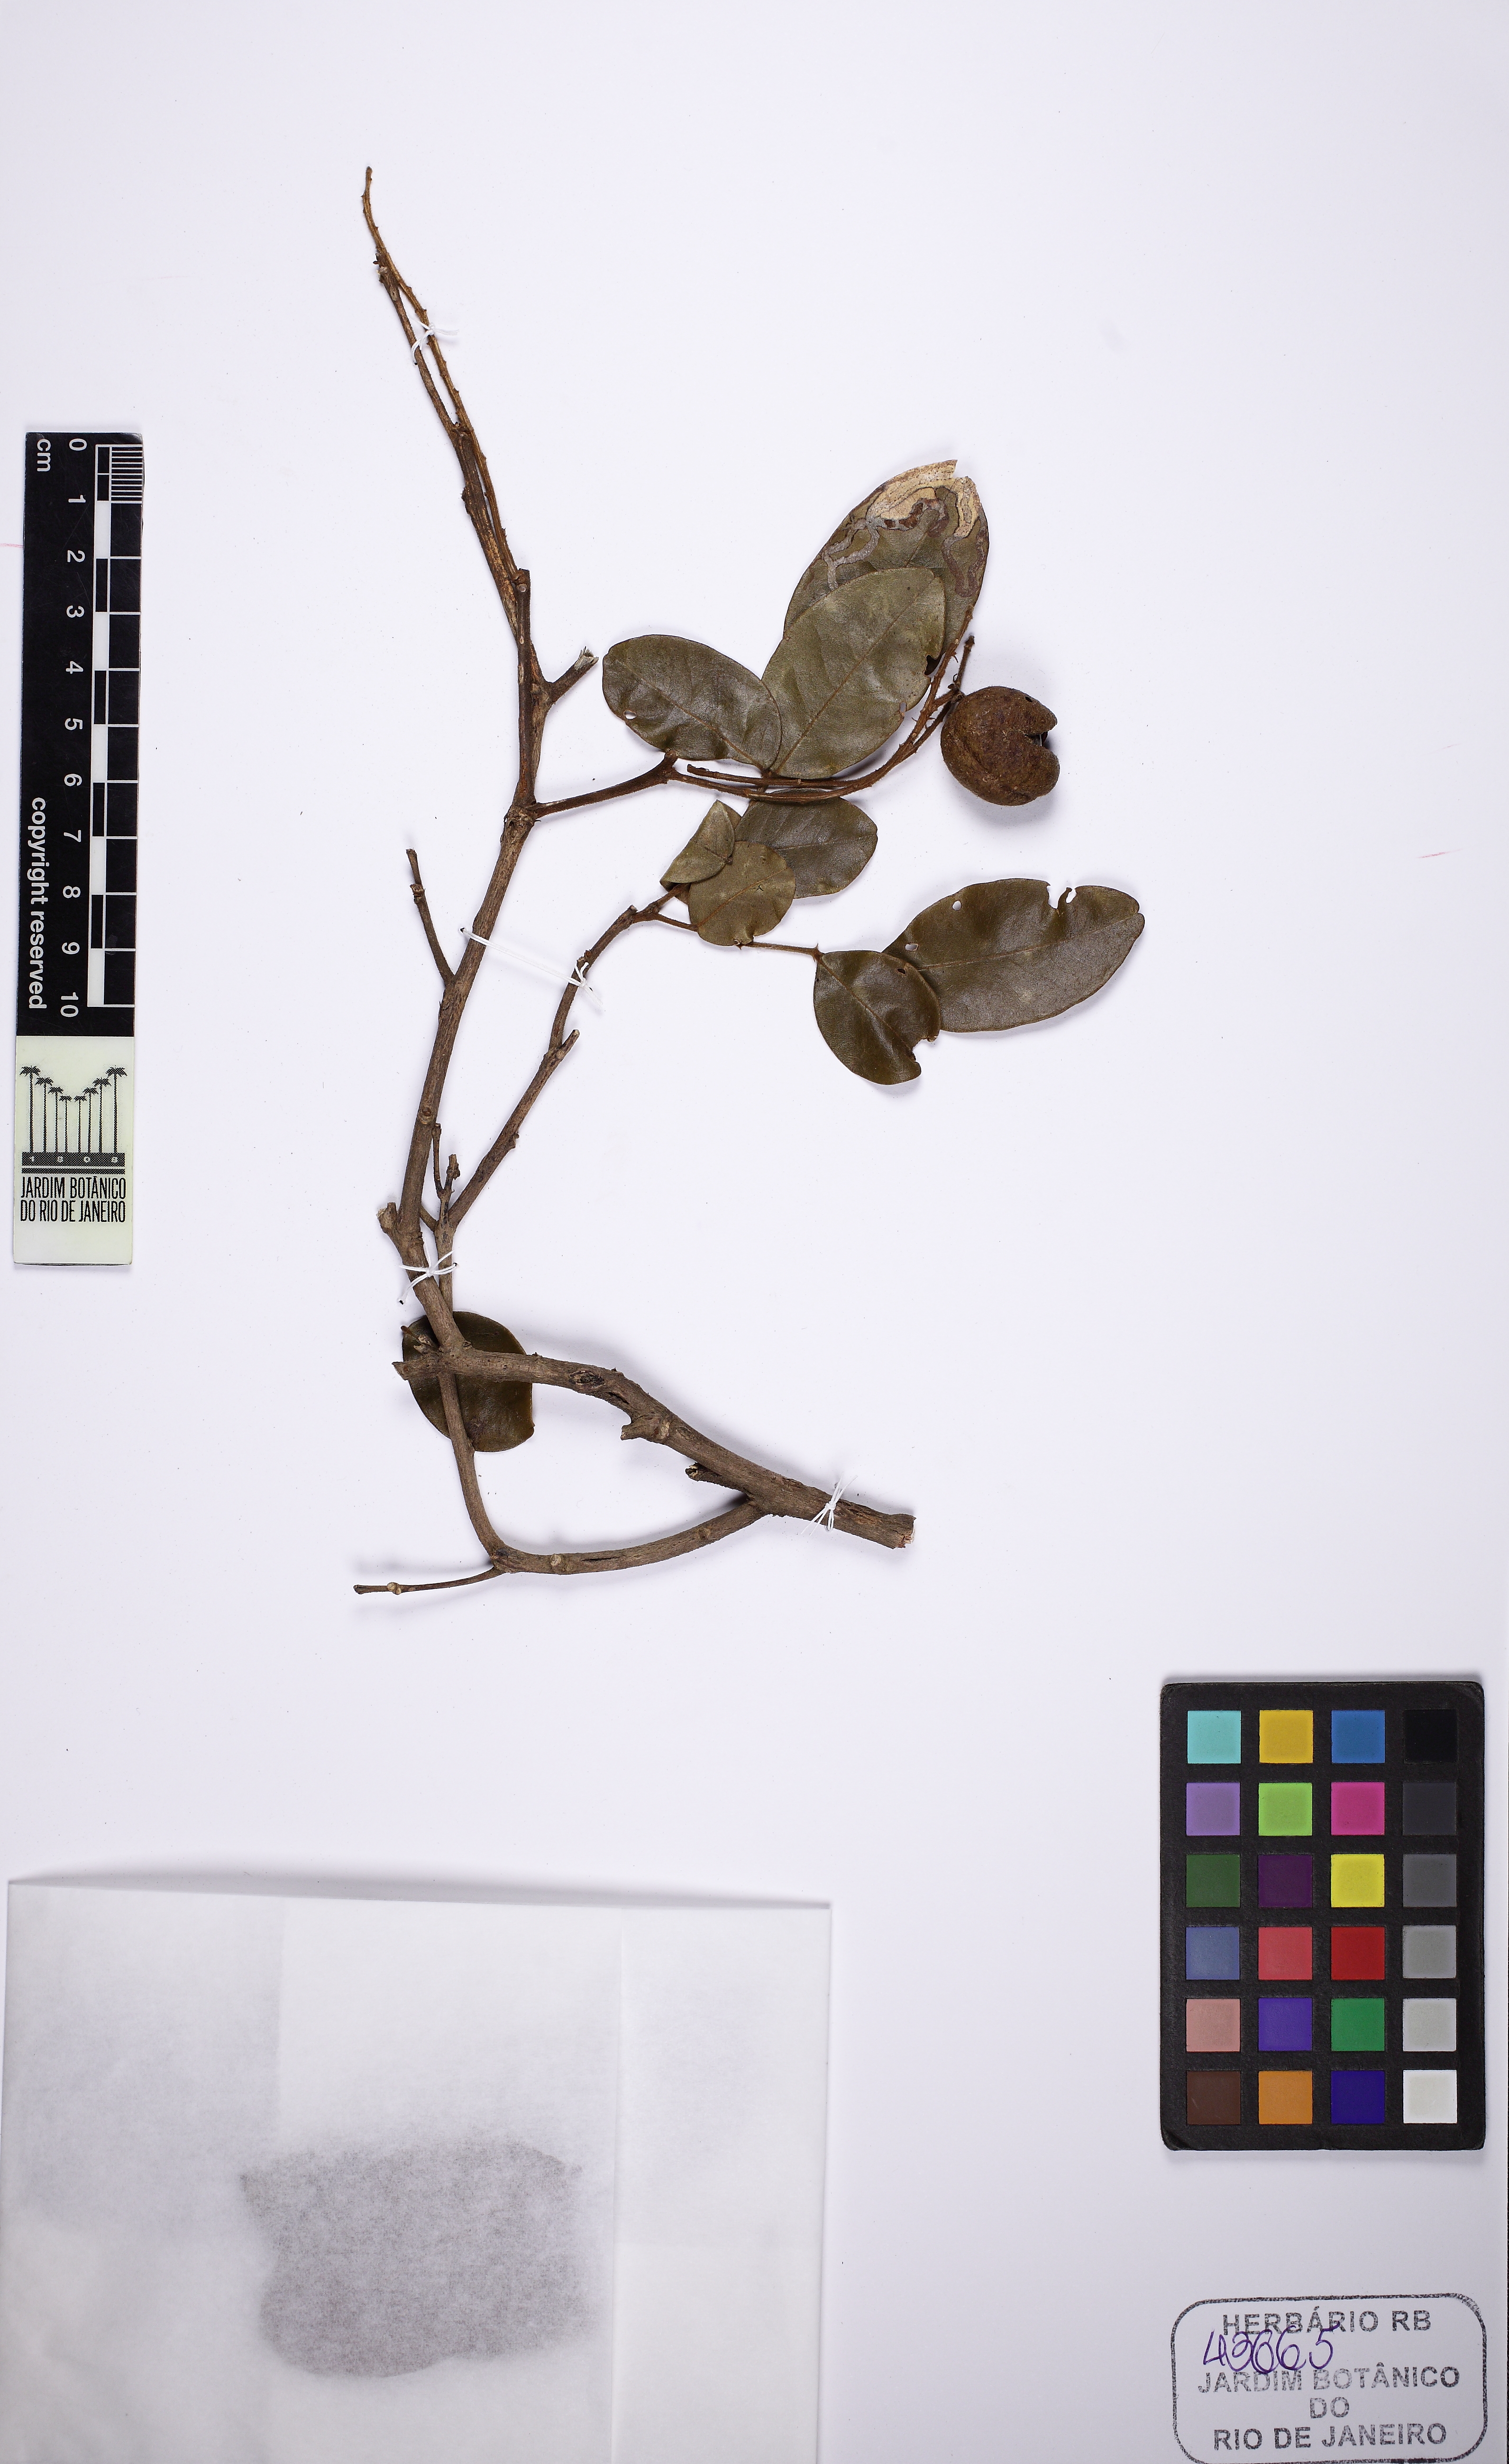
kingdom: Plantae
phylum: Tracheophyta
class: Magnoliopsida
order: Fabales
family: Fabaceae
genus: Swartzia
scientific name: Swartzia pilulifera
